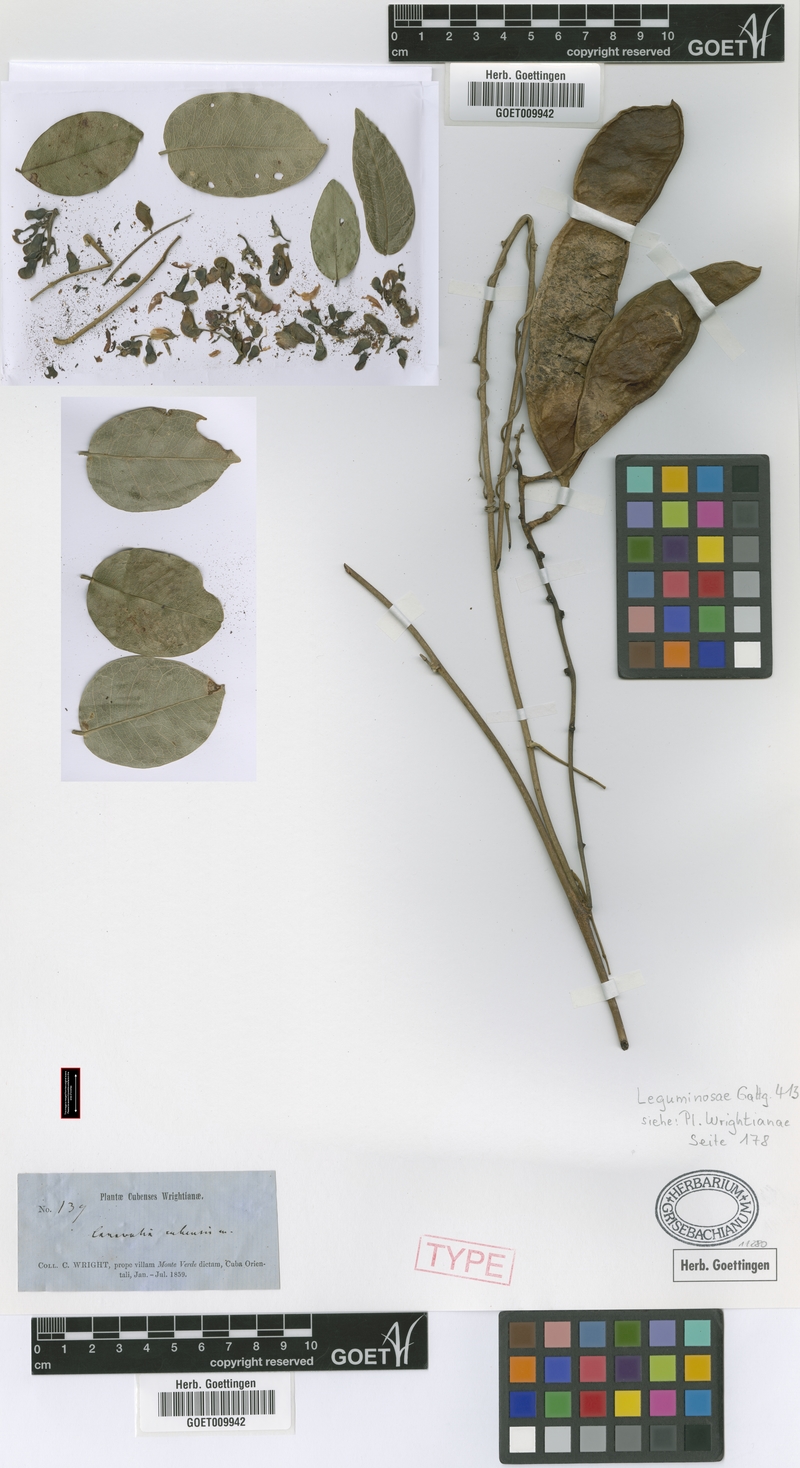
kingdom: Plantae
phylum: Tracheophyta
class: Magnoliopsida
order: Fabales
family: Fabaceae
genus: Canavalia
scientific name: Canavalia nitida
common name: Cathie's-bean
